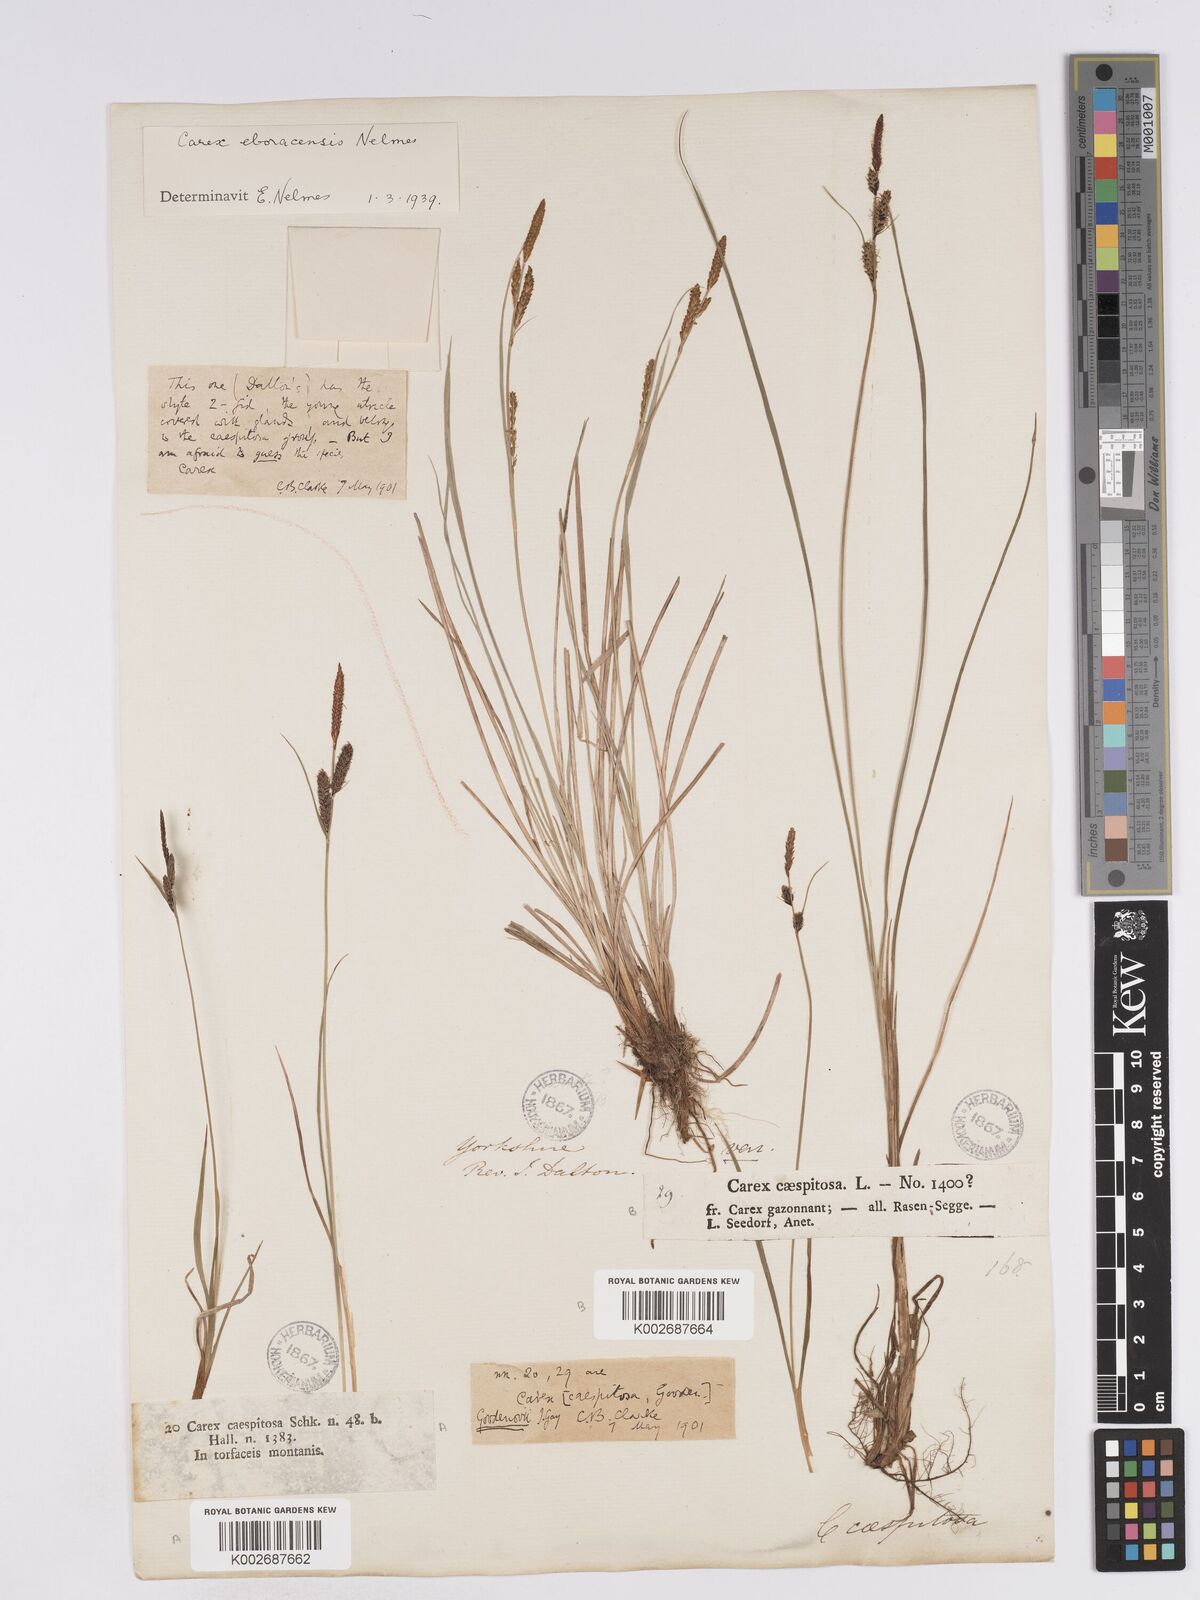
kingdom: Plantae
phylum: Tracheophyta
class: Liliopsida
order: Poales
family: Cyperaceae
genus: Carex
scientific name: Carex nigra
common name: Common sedge
